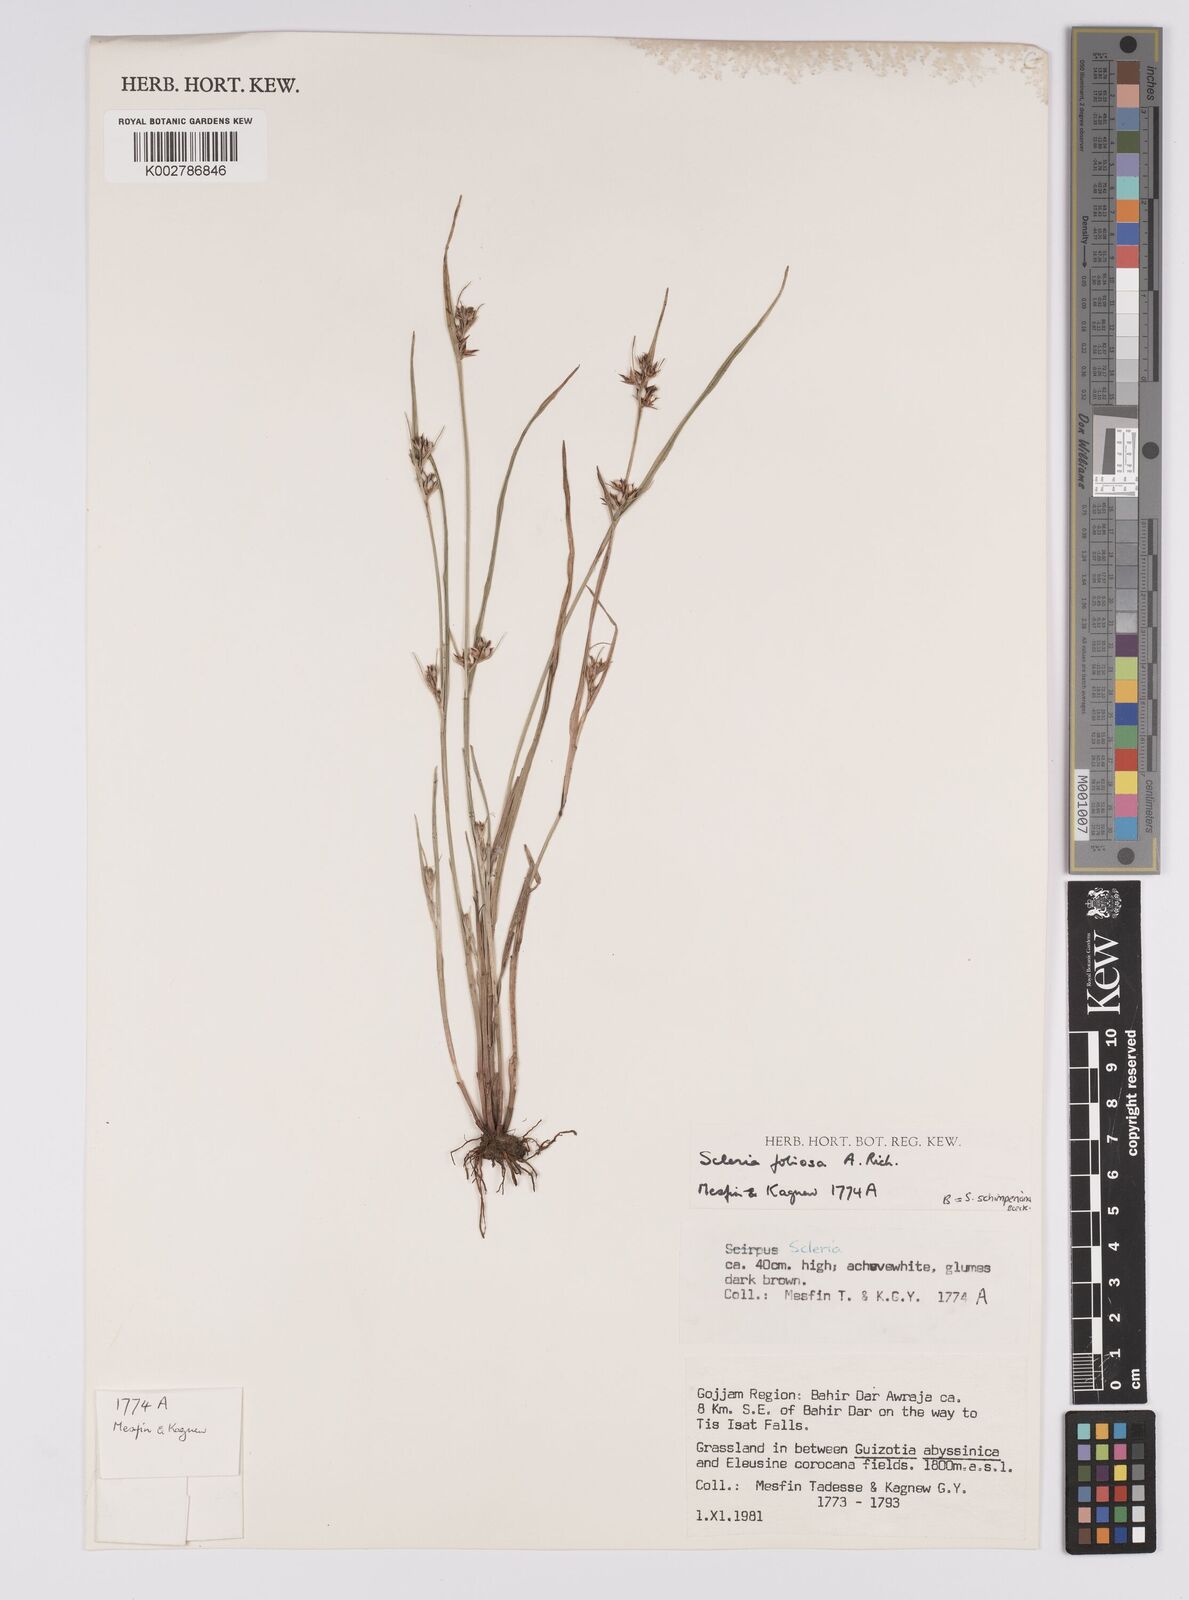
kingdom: Plantae
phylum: Tracheophyta
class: Liliopsida
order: Poales
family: Cyperaceae
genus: Scleria
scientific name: Scleria foliosa
